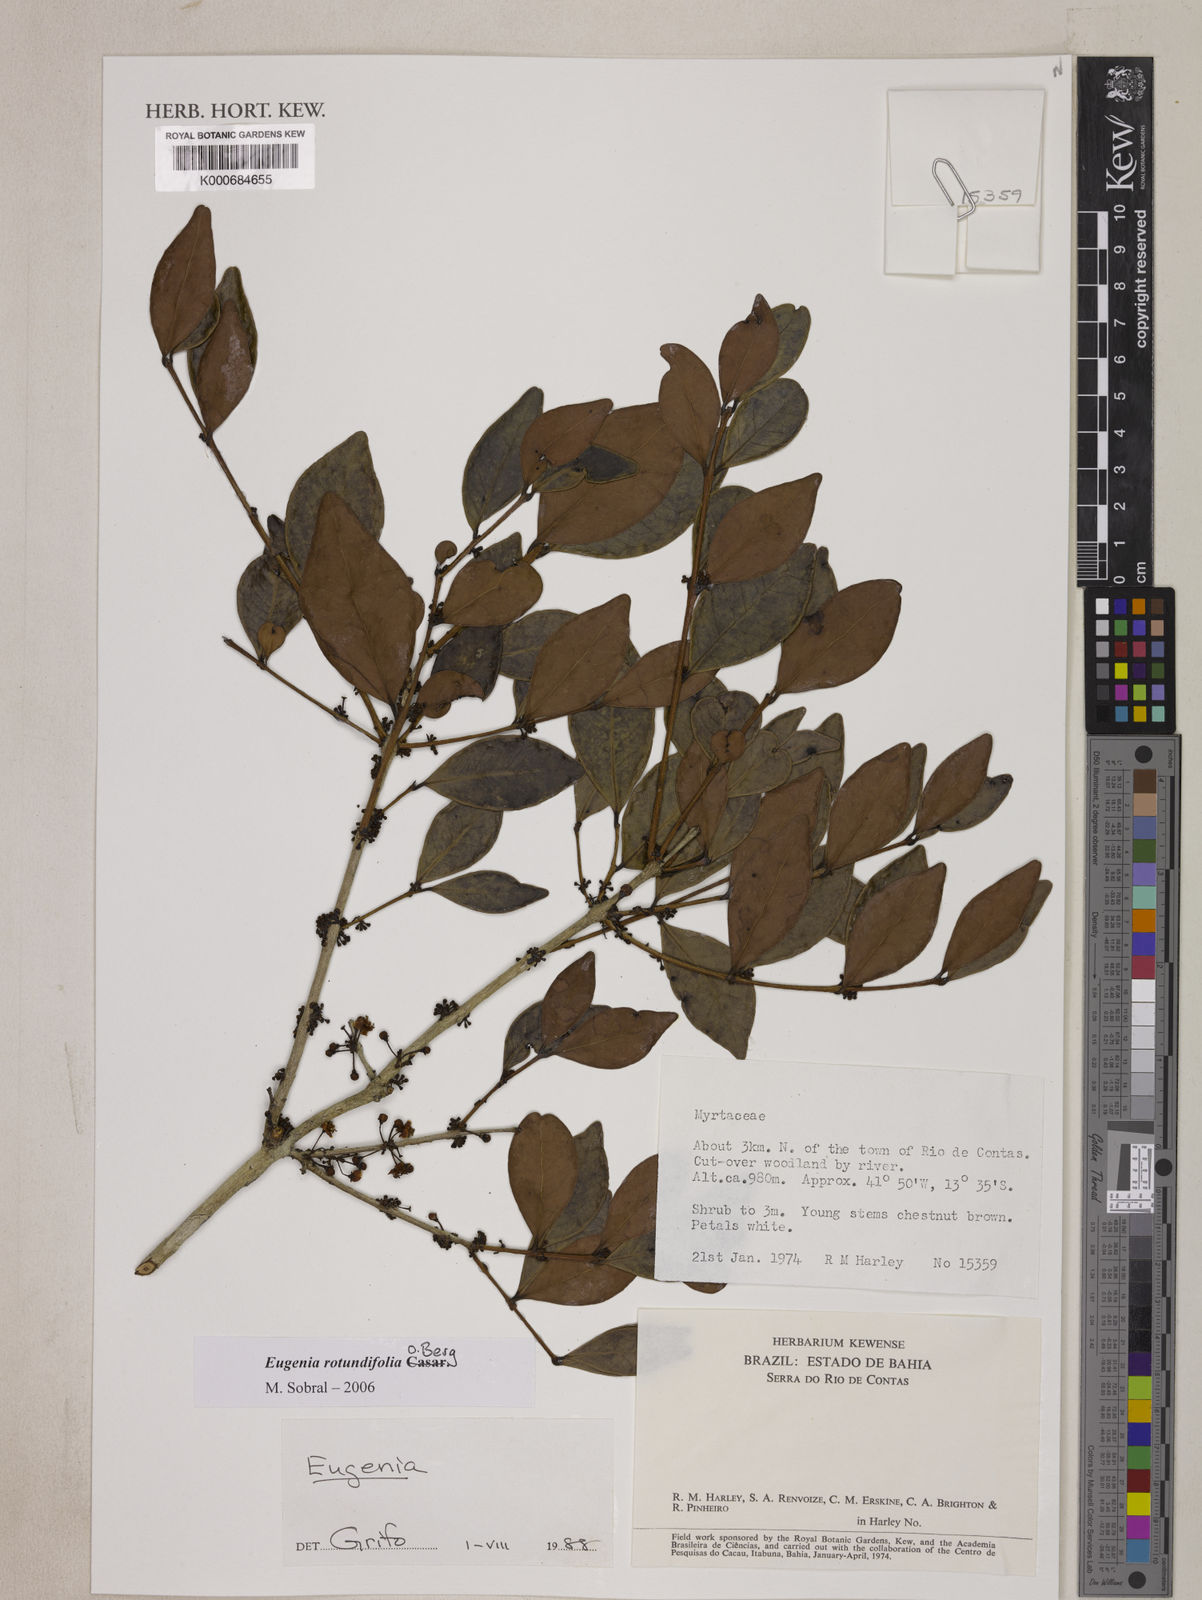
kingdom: Plantae
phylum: Tracheophyta
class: Magnoliopsida
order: Myrtales
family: Myrtaceae
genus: Eugenia
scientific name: Eugenia umbelliflora
